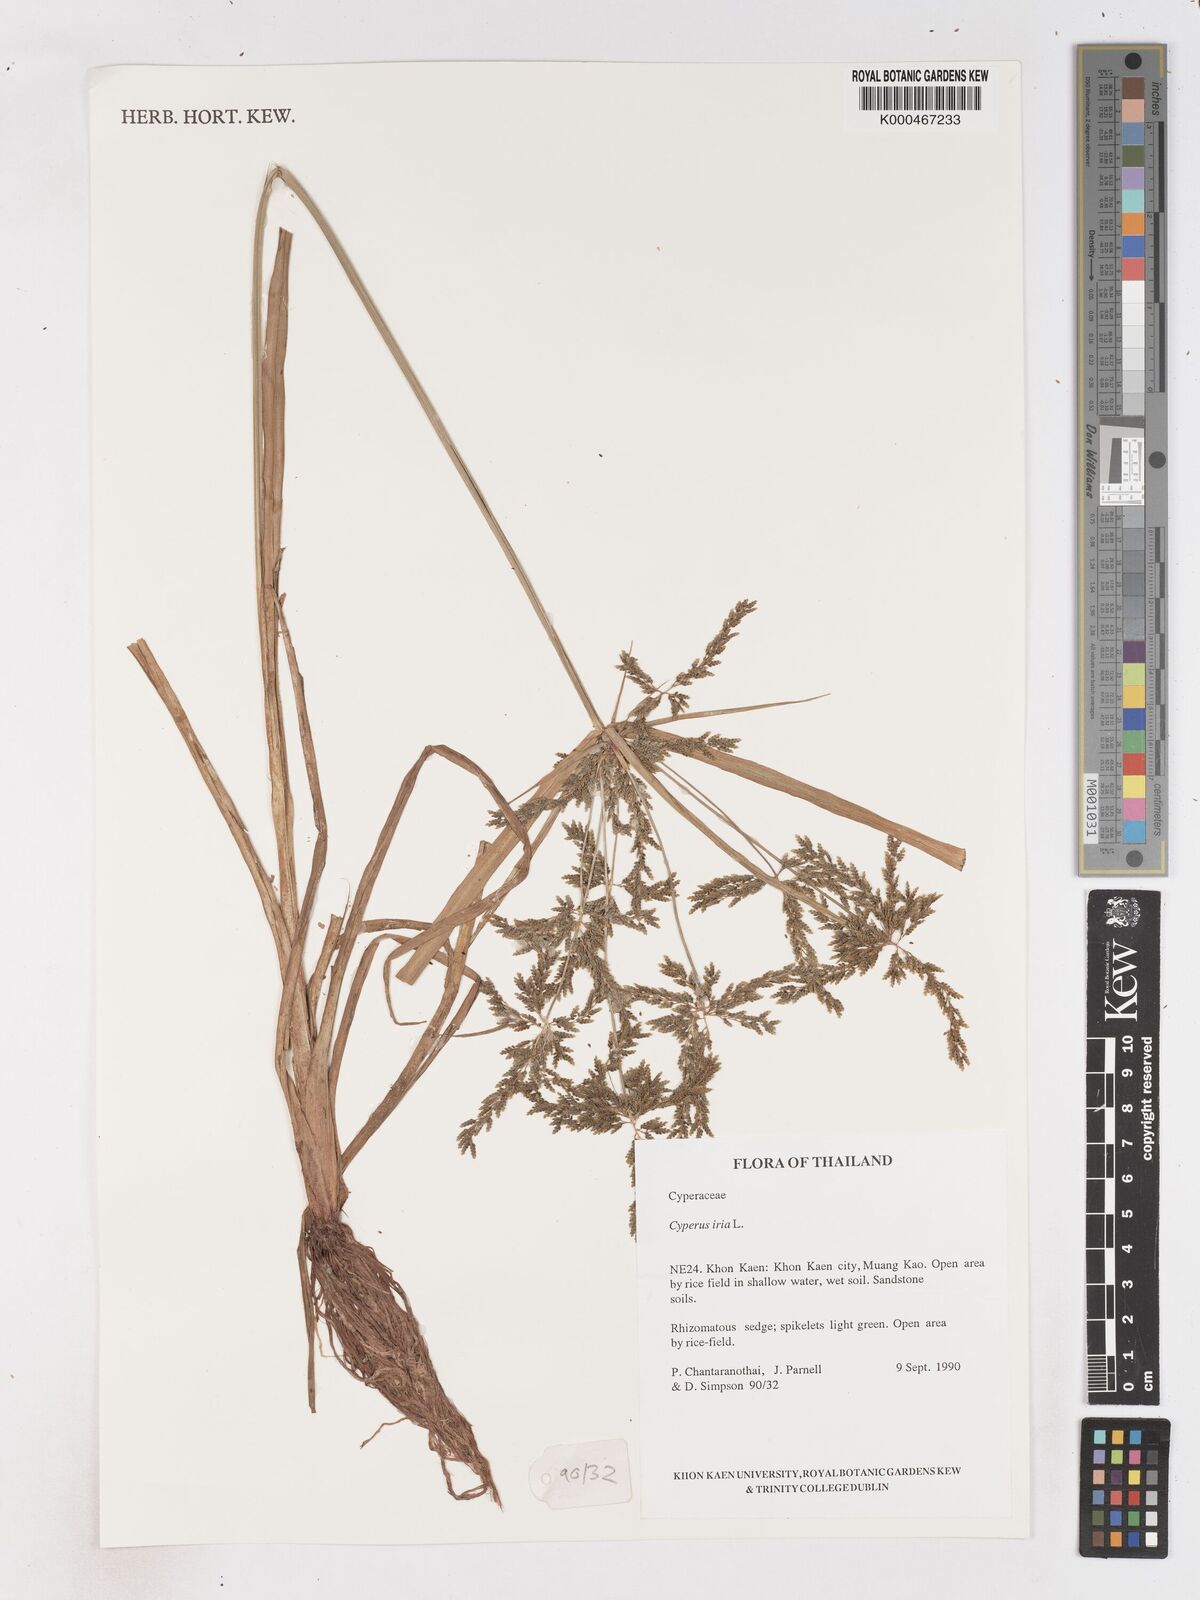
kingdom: Plantae
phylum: Tracheophyta
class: Liliopsida
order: Poales
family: Cyperaceae
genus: Cyperus
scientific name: Cyperus iria
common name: Ricefield flatsedge
